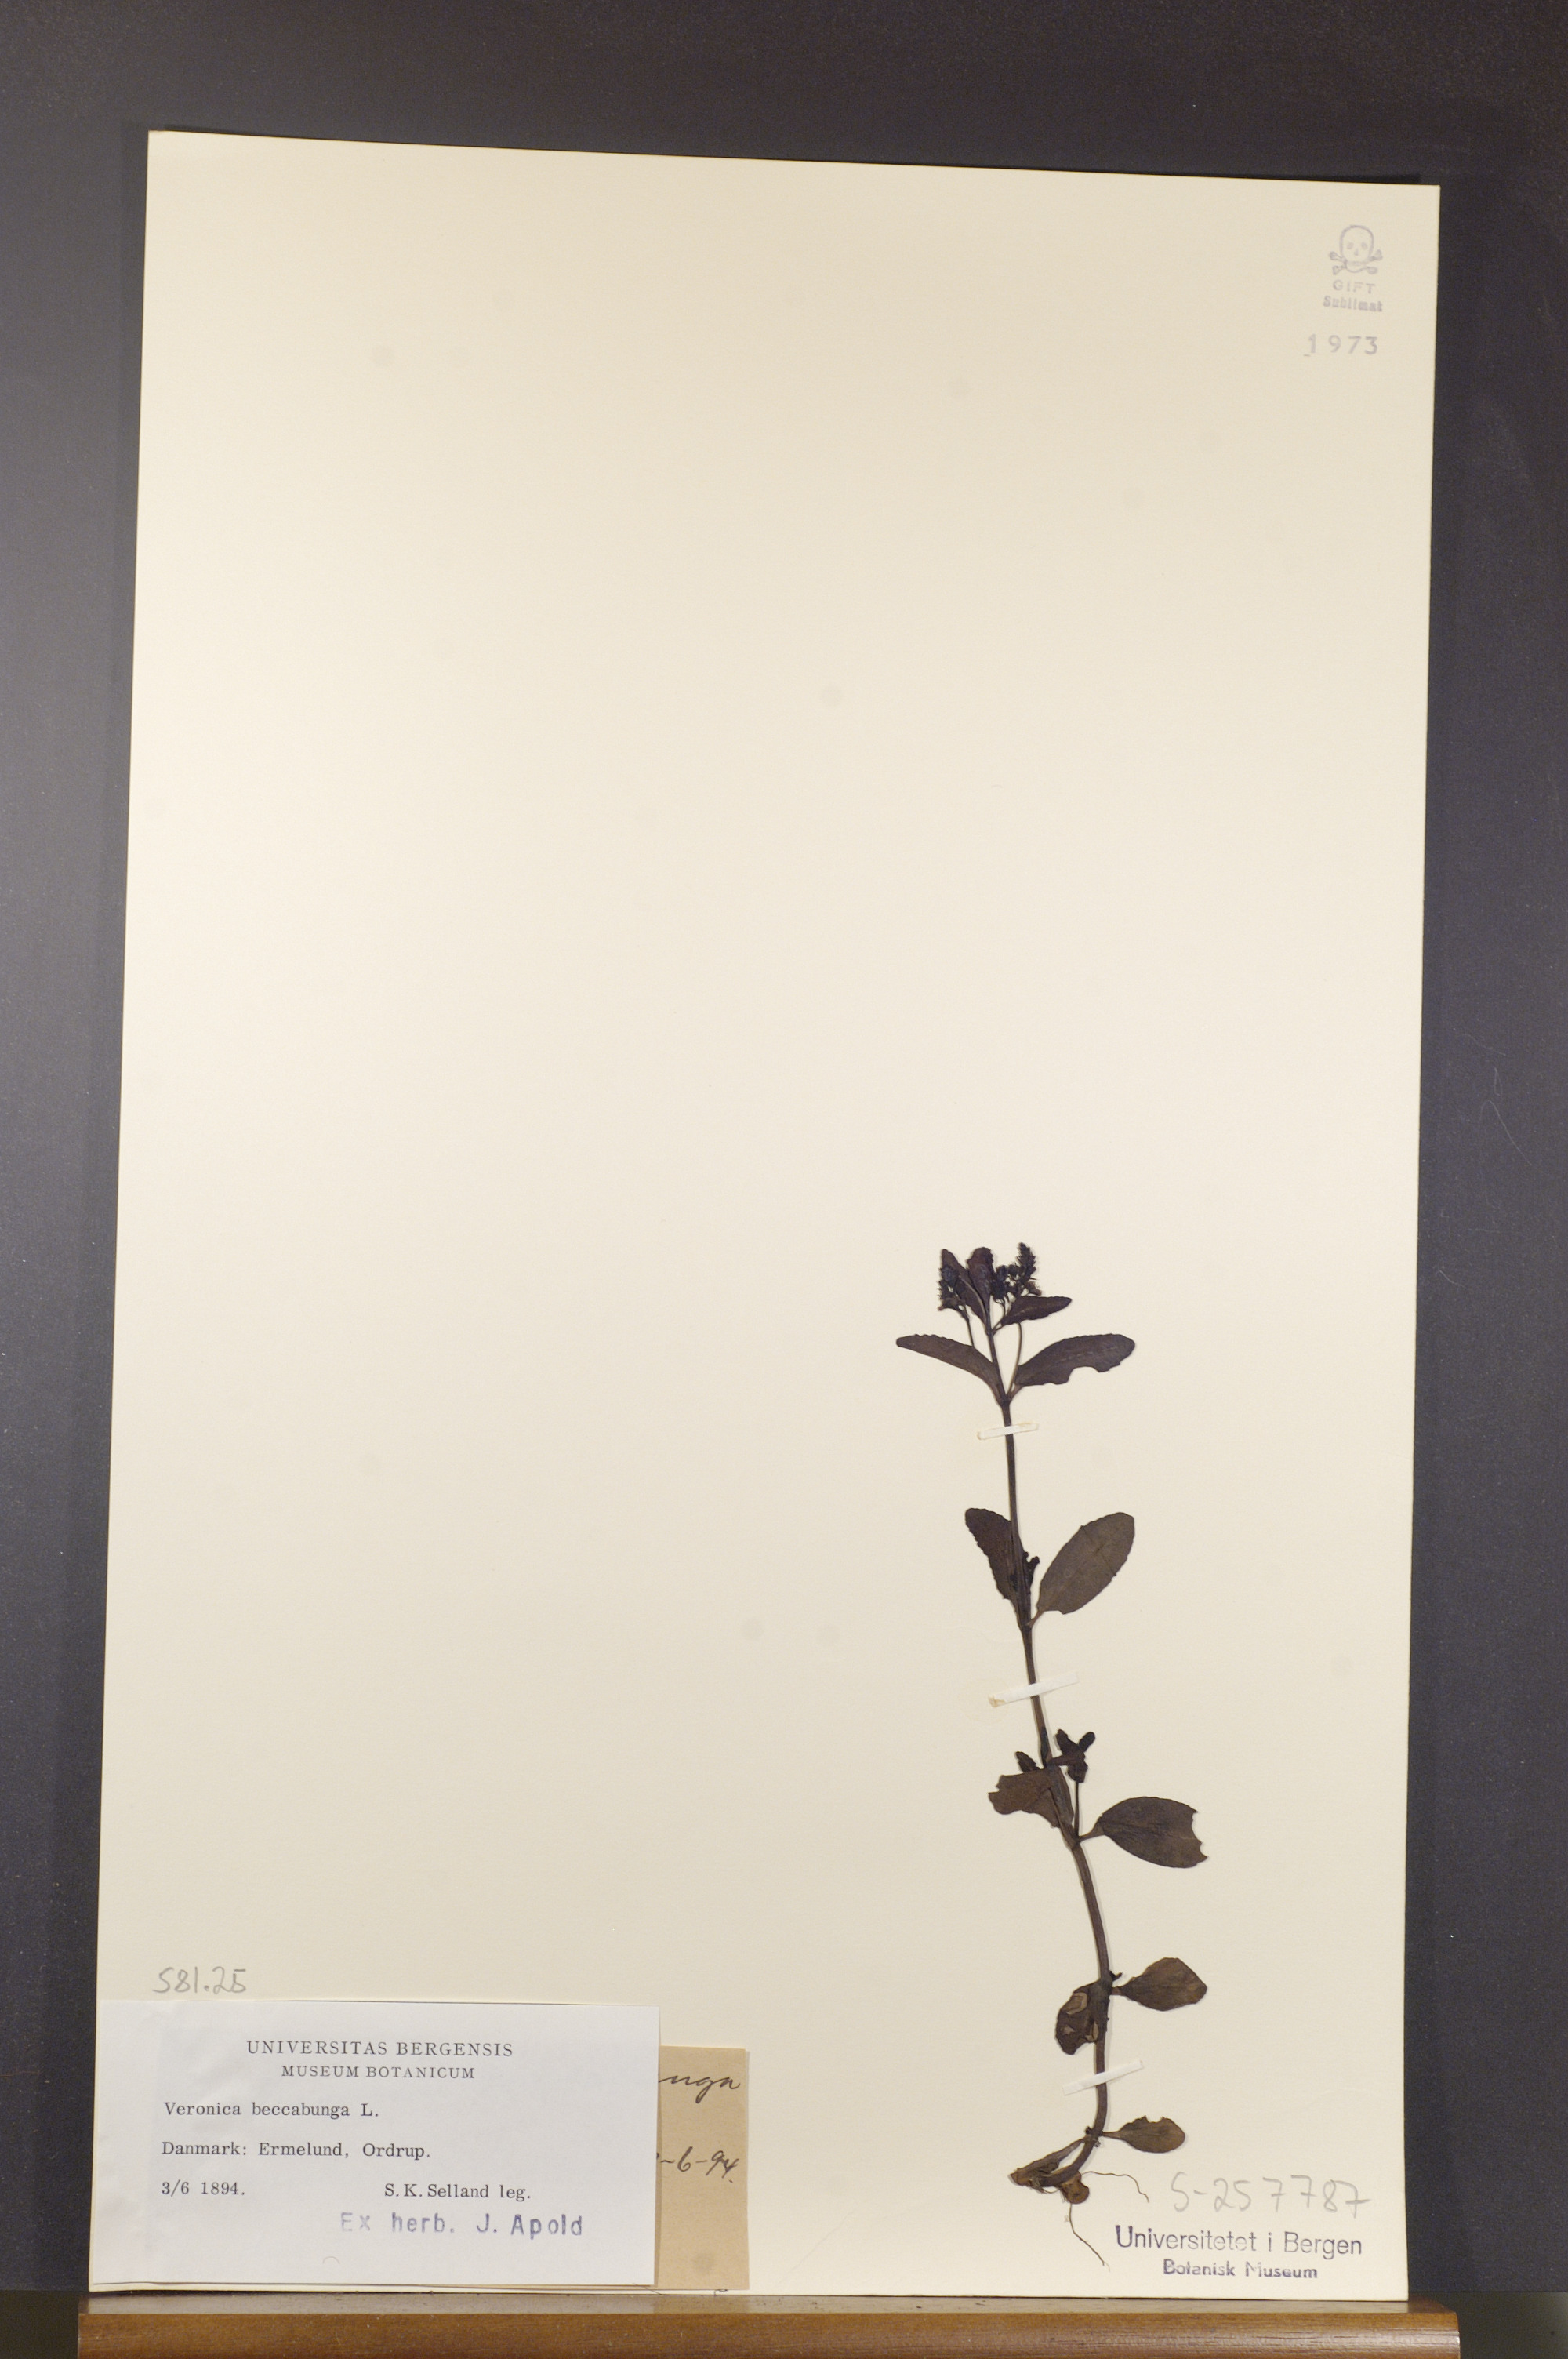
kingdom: Plantae
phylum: Tracheophyta
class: Magnoliopsida
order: Lamiales
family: Plantaginaceae
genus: Veronica
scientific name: Veronica beccabunga
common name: Brooklime
